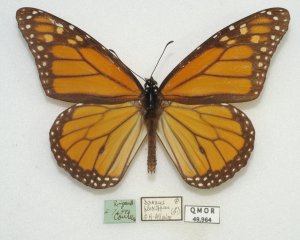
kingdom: Animalia
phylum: Arthropoda
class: Insecta
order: Lepidoptera
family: Nymphalidae
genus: Danaus
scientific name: Danaus plexippus
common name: Monarch
